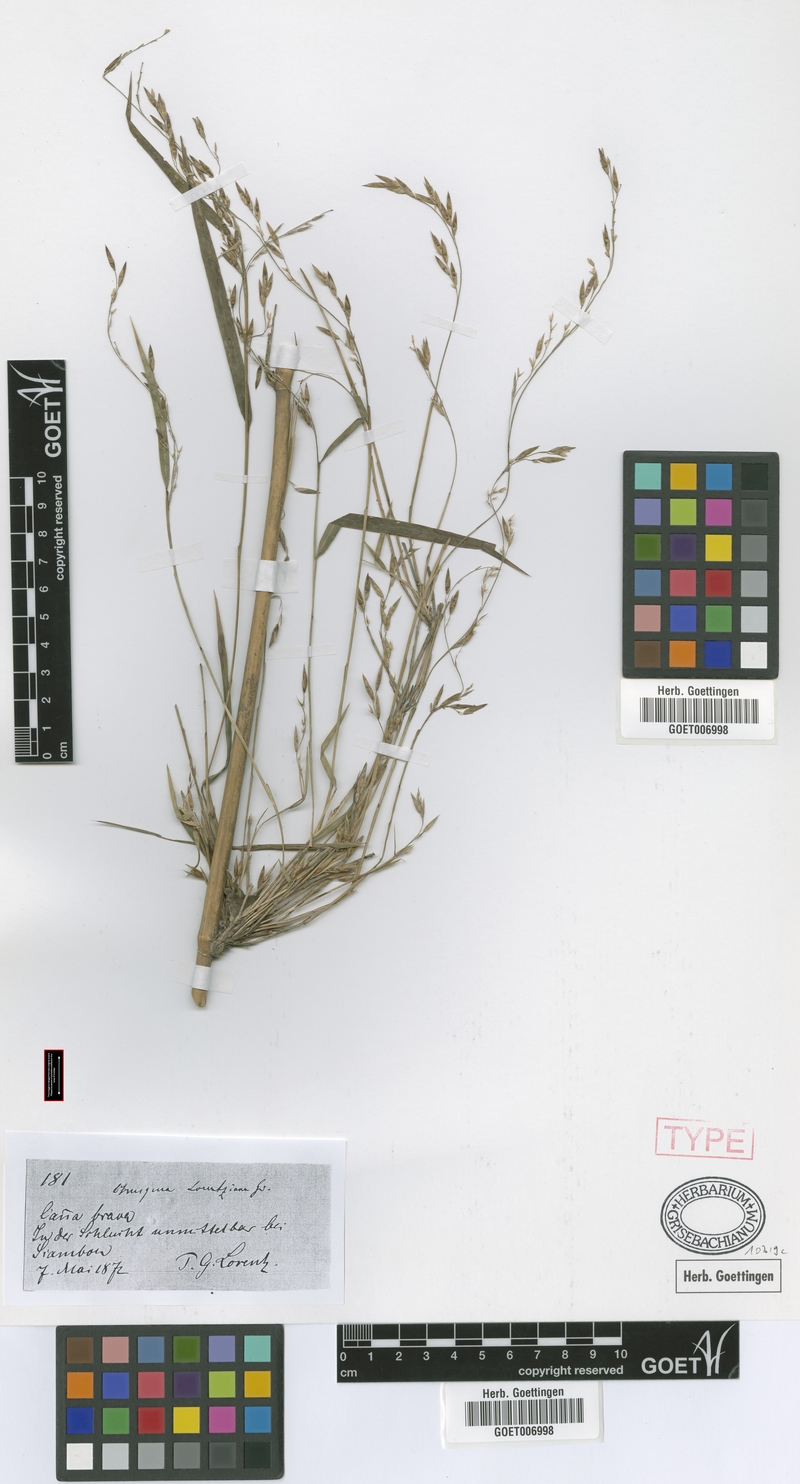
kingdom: Plantae
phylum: Tracheophyta
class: Liliopsida
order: Poales
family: Poaceae
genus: Chusquea
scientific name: Chusquea lorentziana
